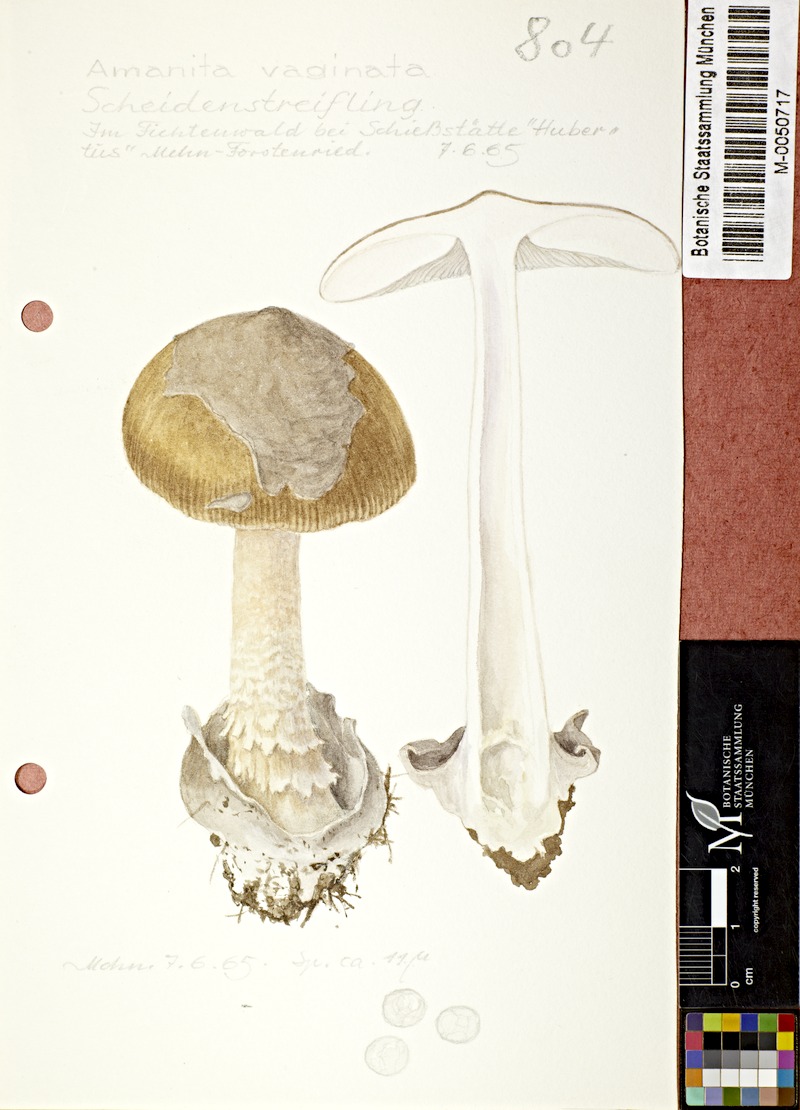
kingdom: Fungi
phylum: Basidiomycota
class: Agaricomycetes
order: Agaricales
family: Amanitaceae
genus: Amanita
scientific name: Amanita vaginata
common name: Grisette
